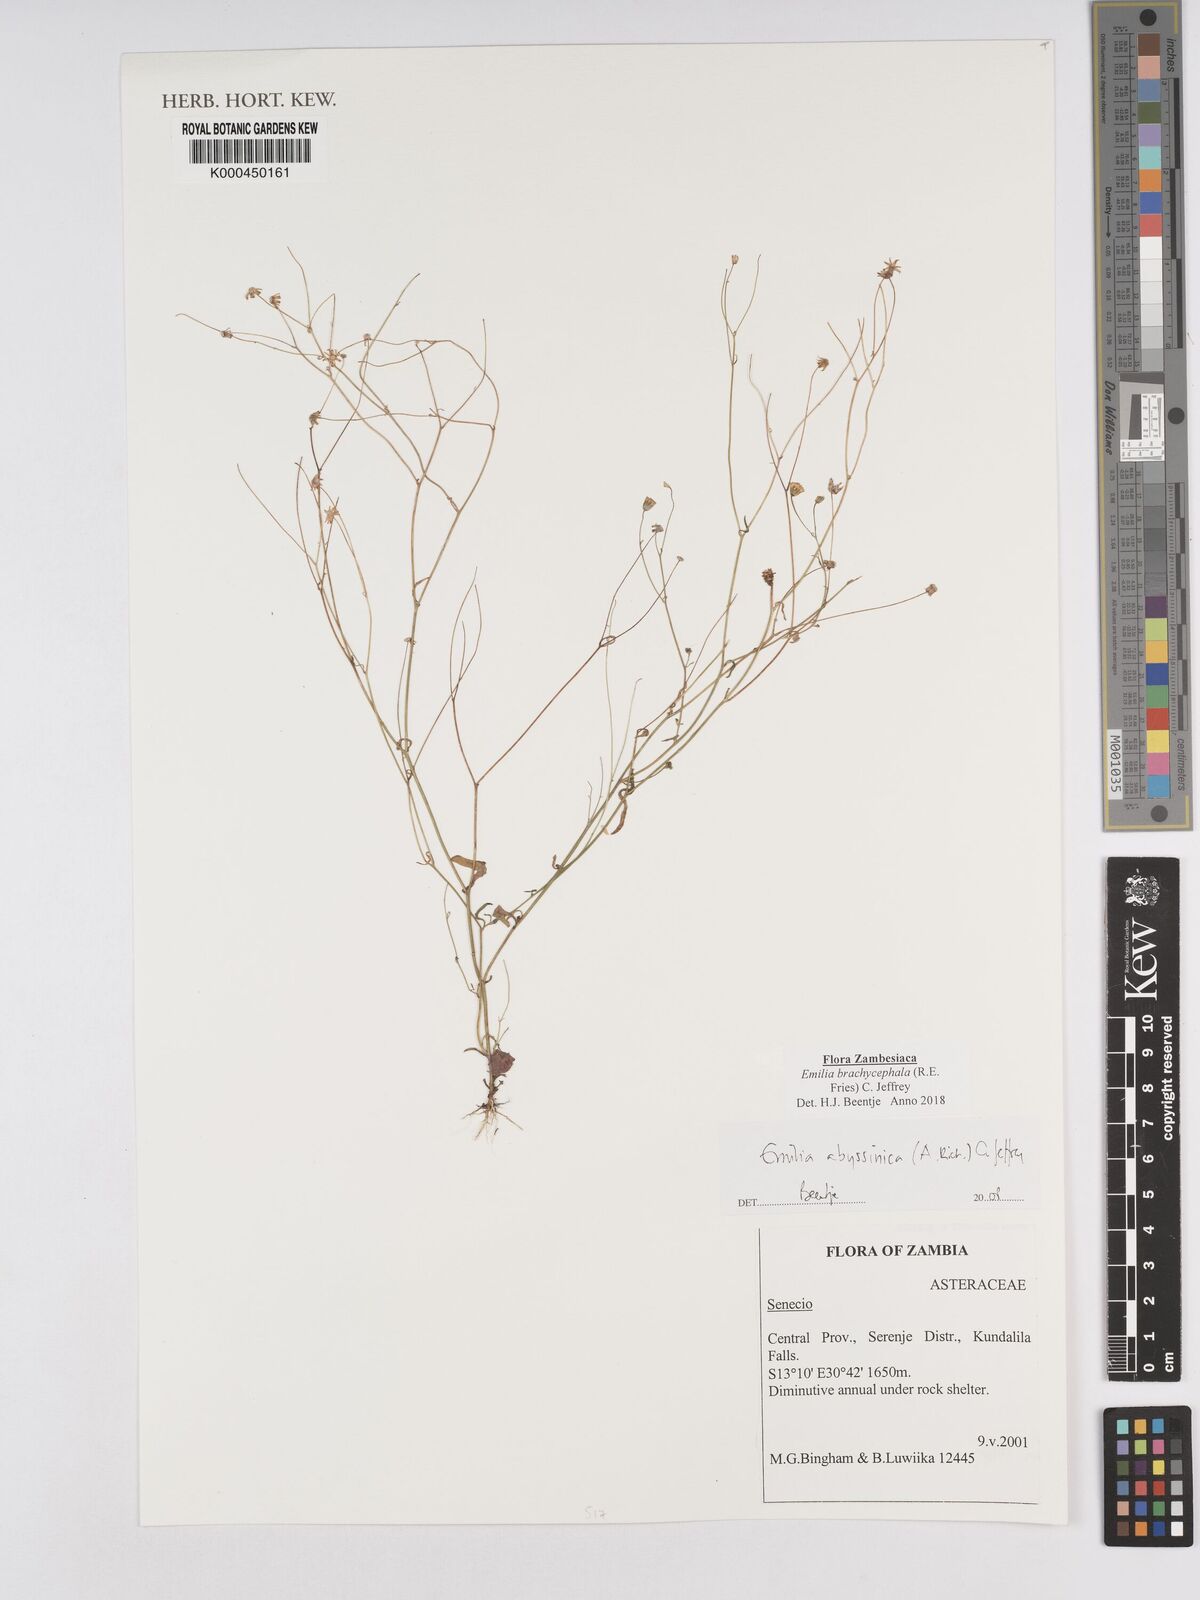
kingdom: Plantae
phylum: Tracheophyta
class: Magnoliopsida
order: Asterales
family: Asteraceae
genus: Emilia
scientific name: Emilia abyssinica
